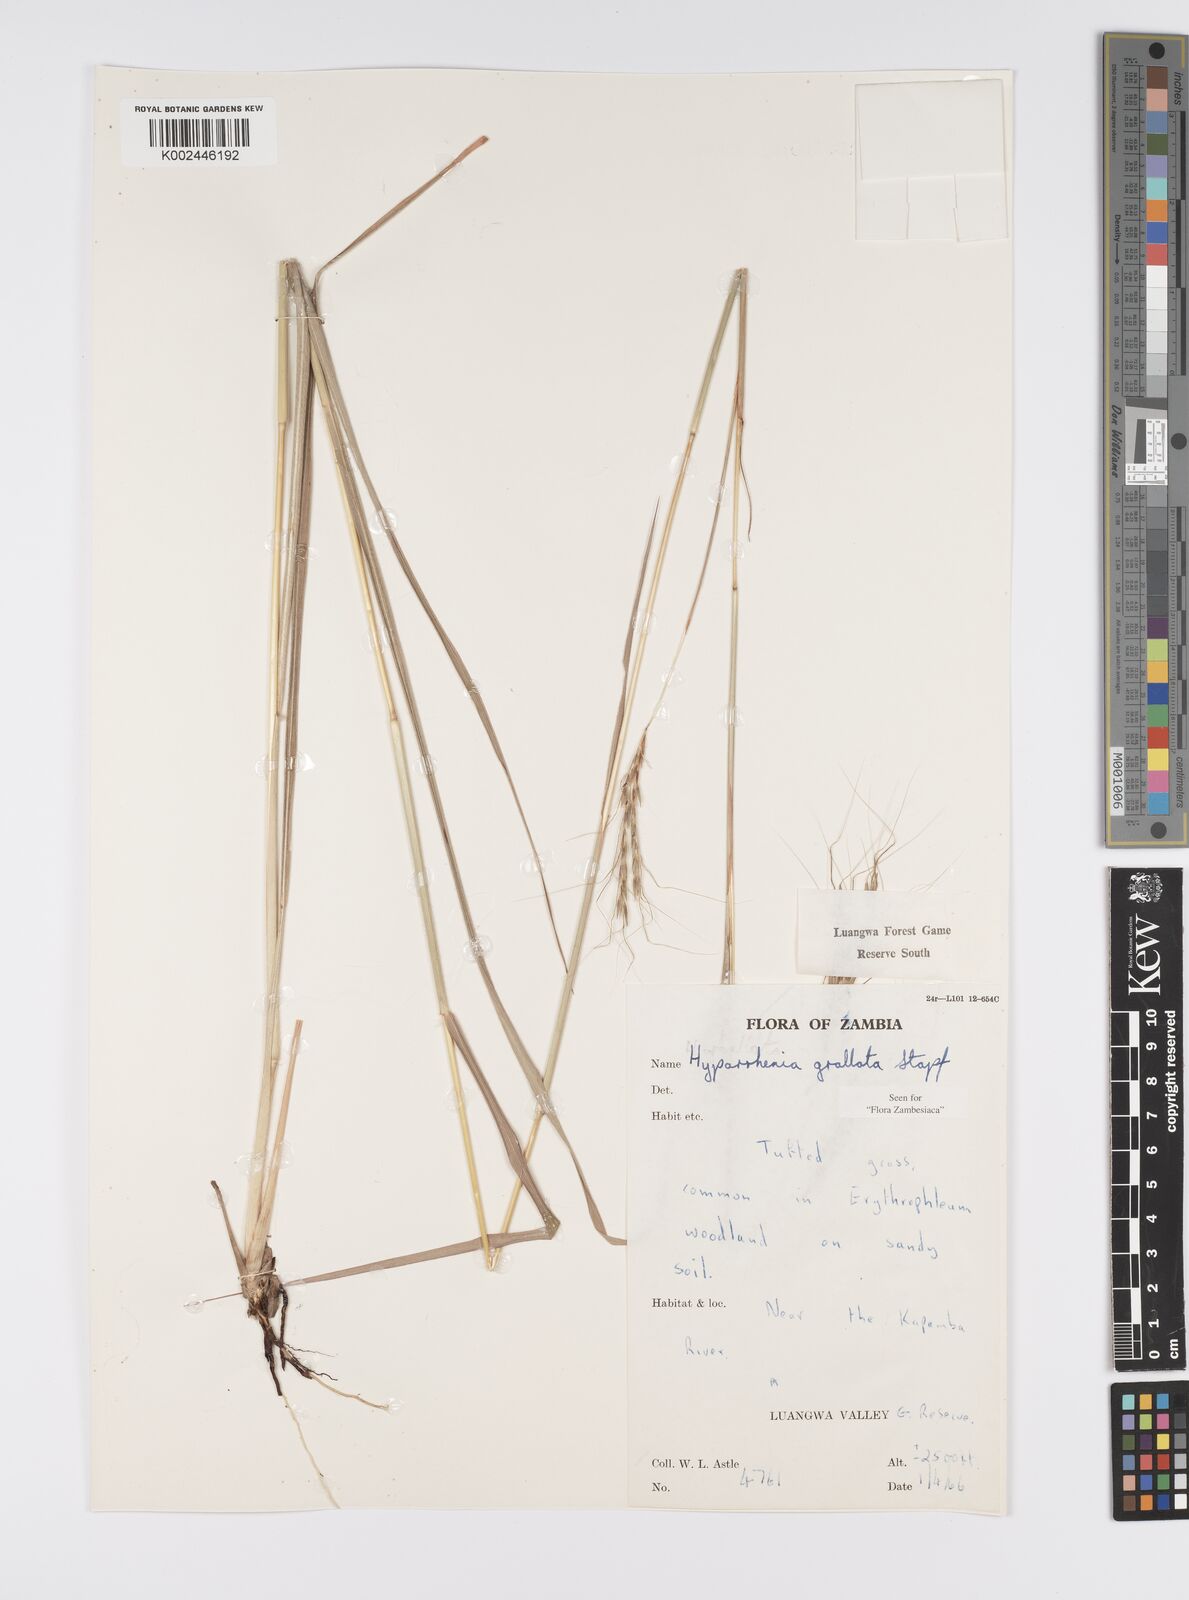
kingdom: Plantae
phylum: Tracheophyta
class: Liliopsida
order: Poales
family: Poaceae
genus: Elymandra
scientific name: Elymandra grallata
